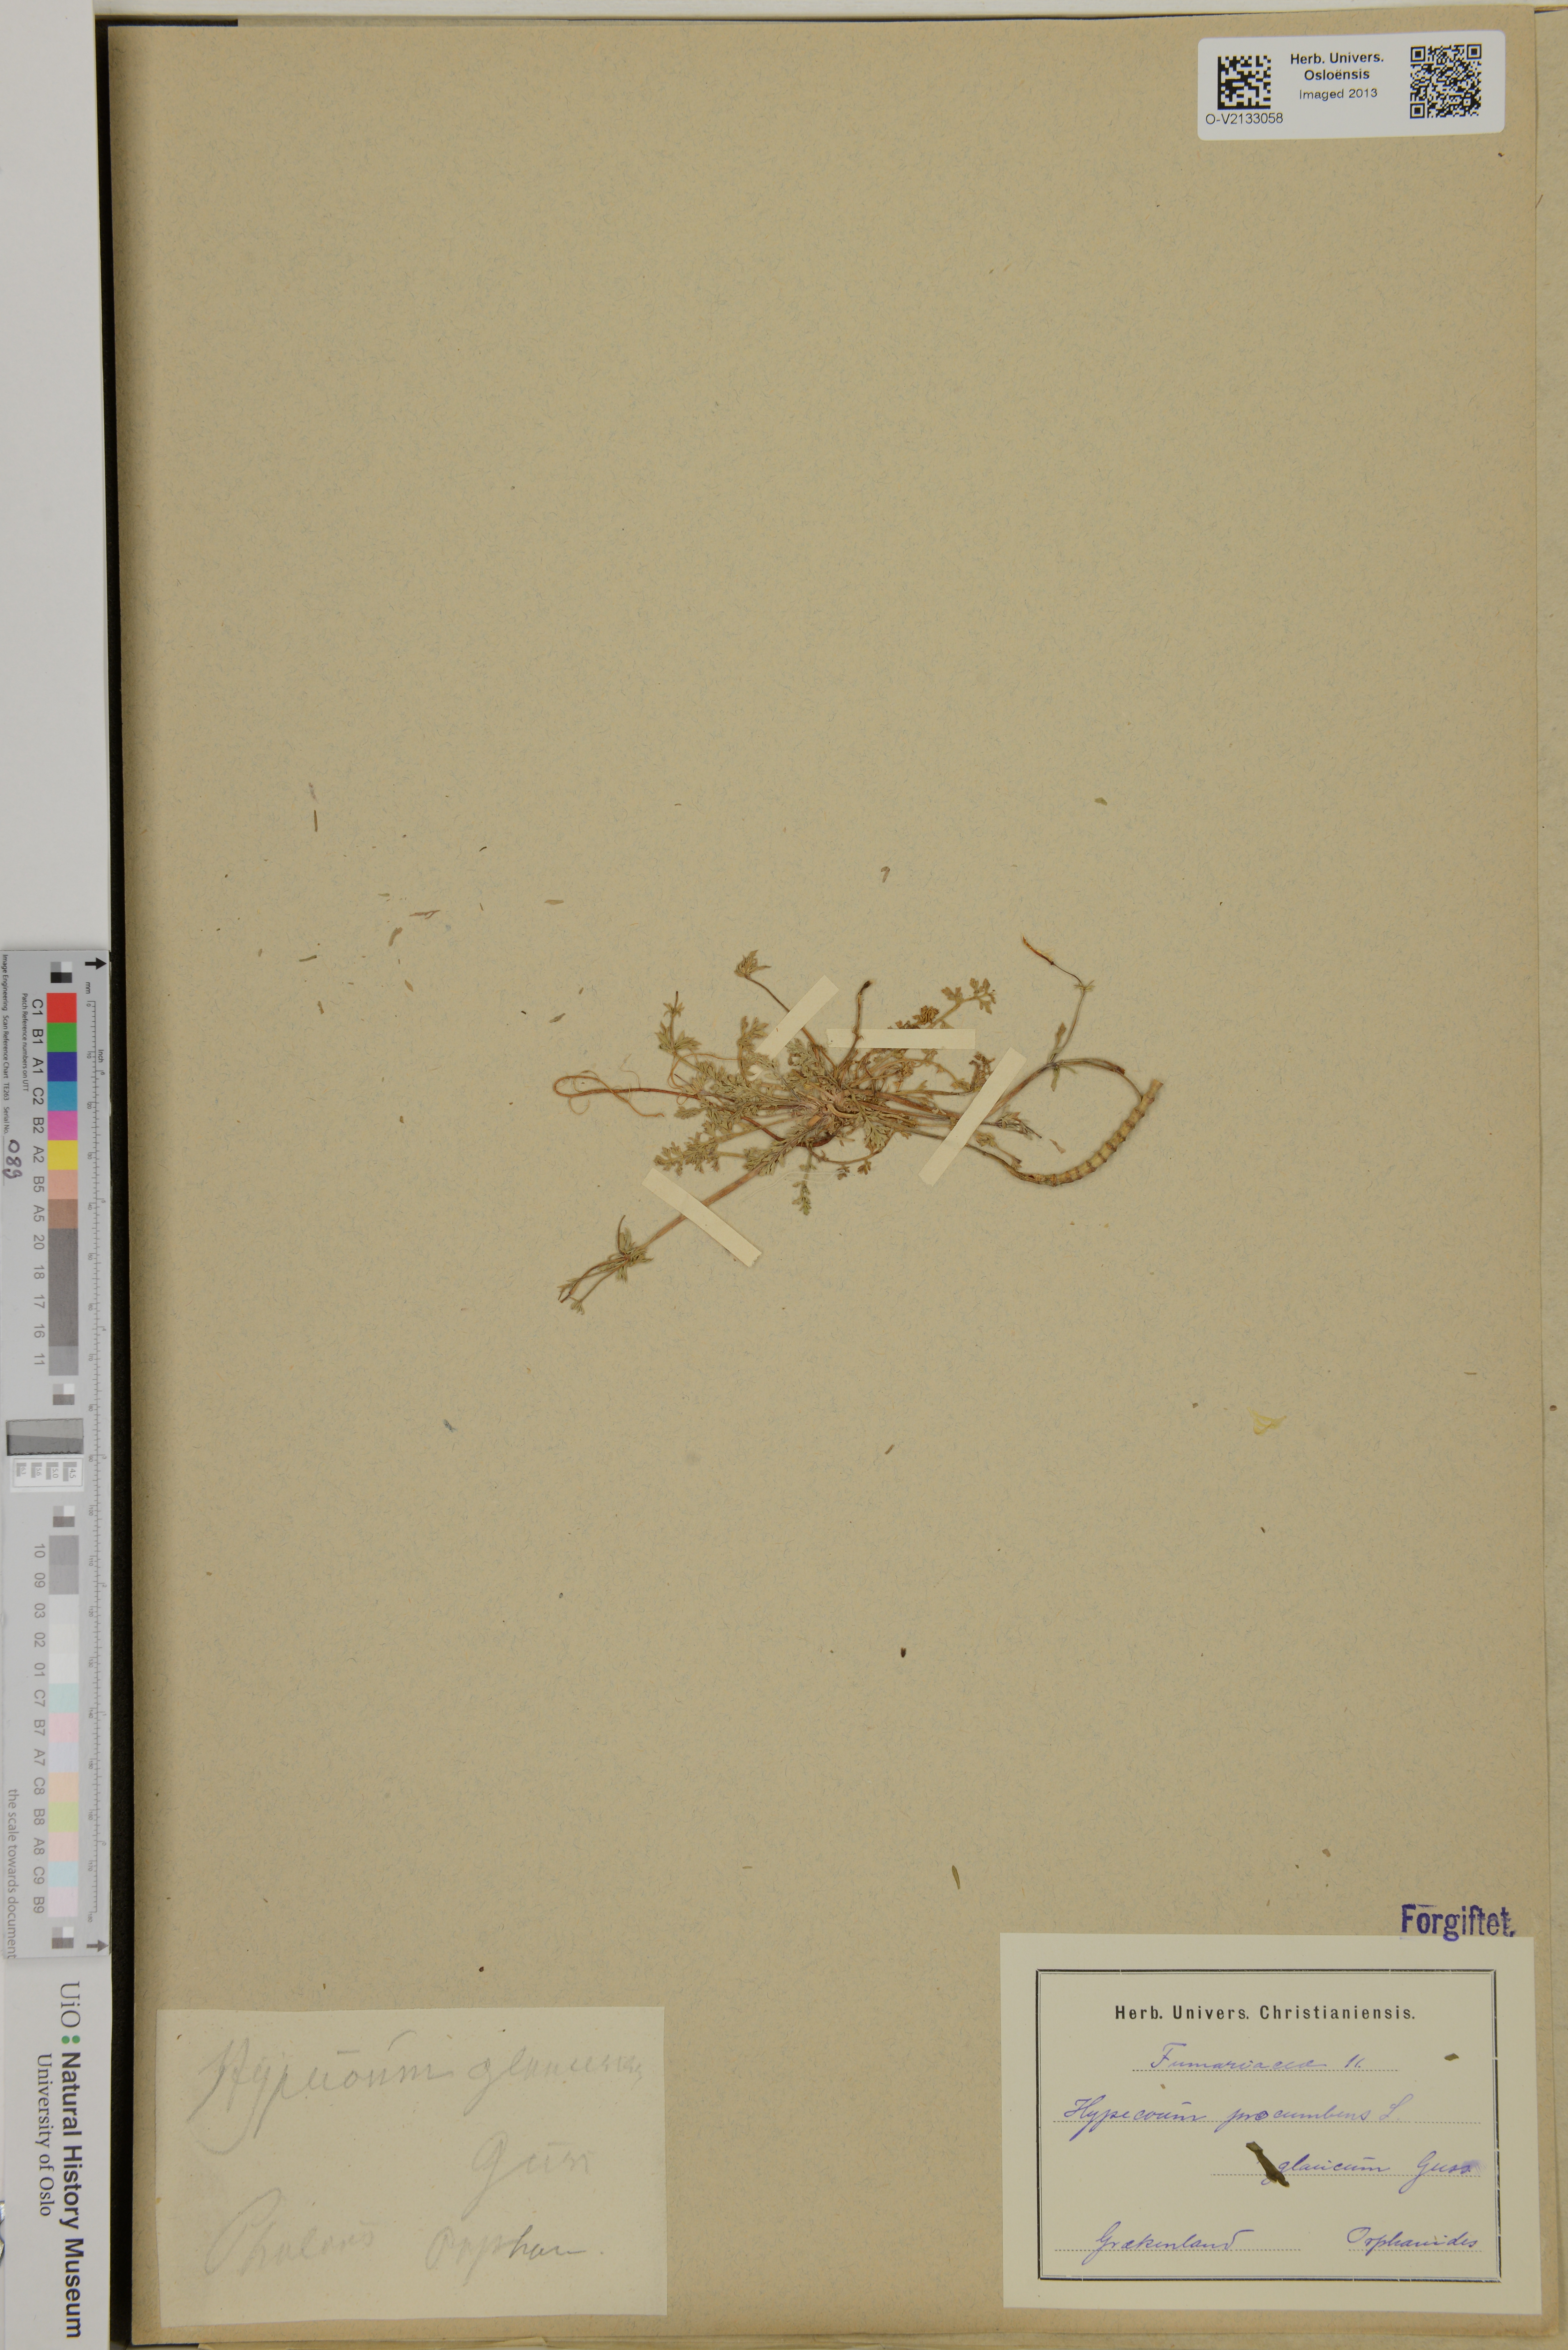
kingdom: Plantae
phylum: Tracheophyta
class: Magnoliopsida
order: Ranunculales
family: Papaveraceae
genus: Hypecoum
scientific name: Hypecoum procumbens
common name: Procumbent hypecoum
